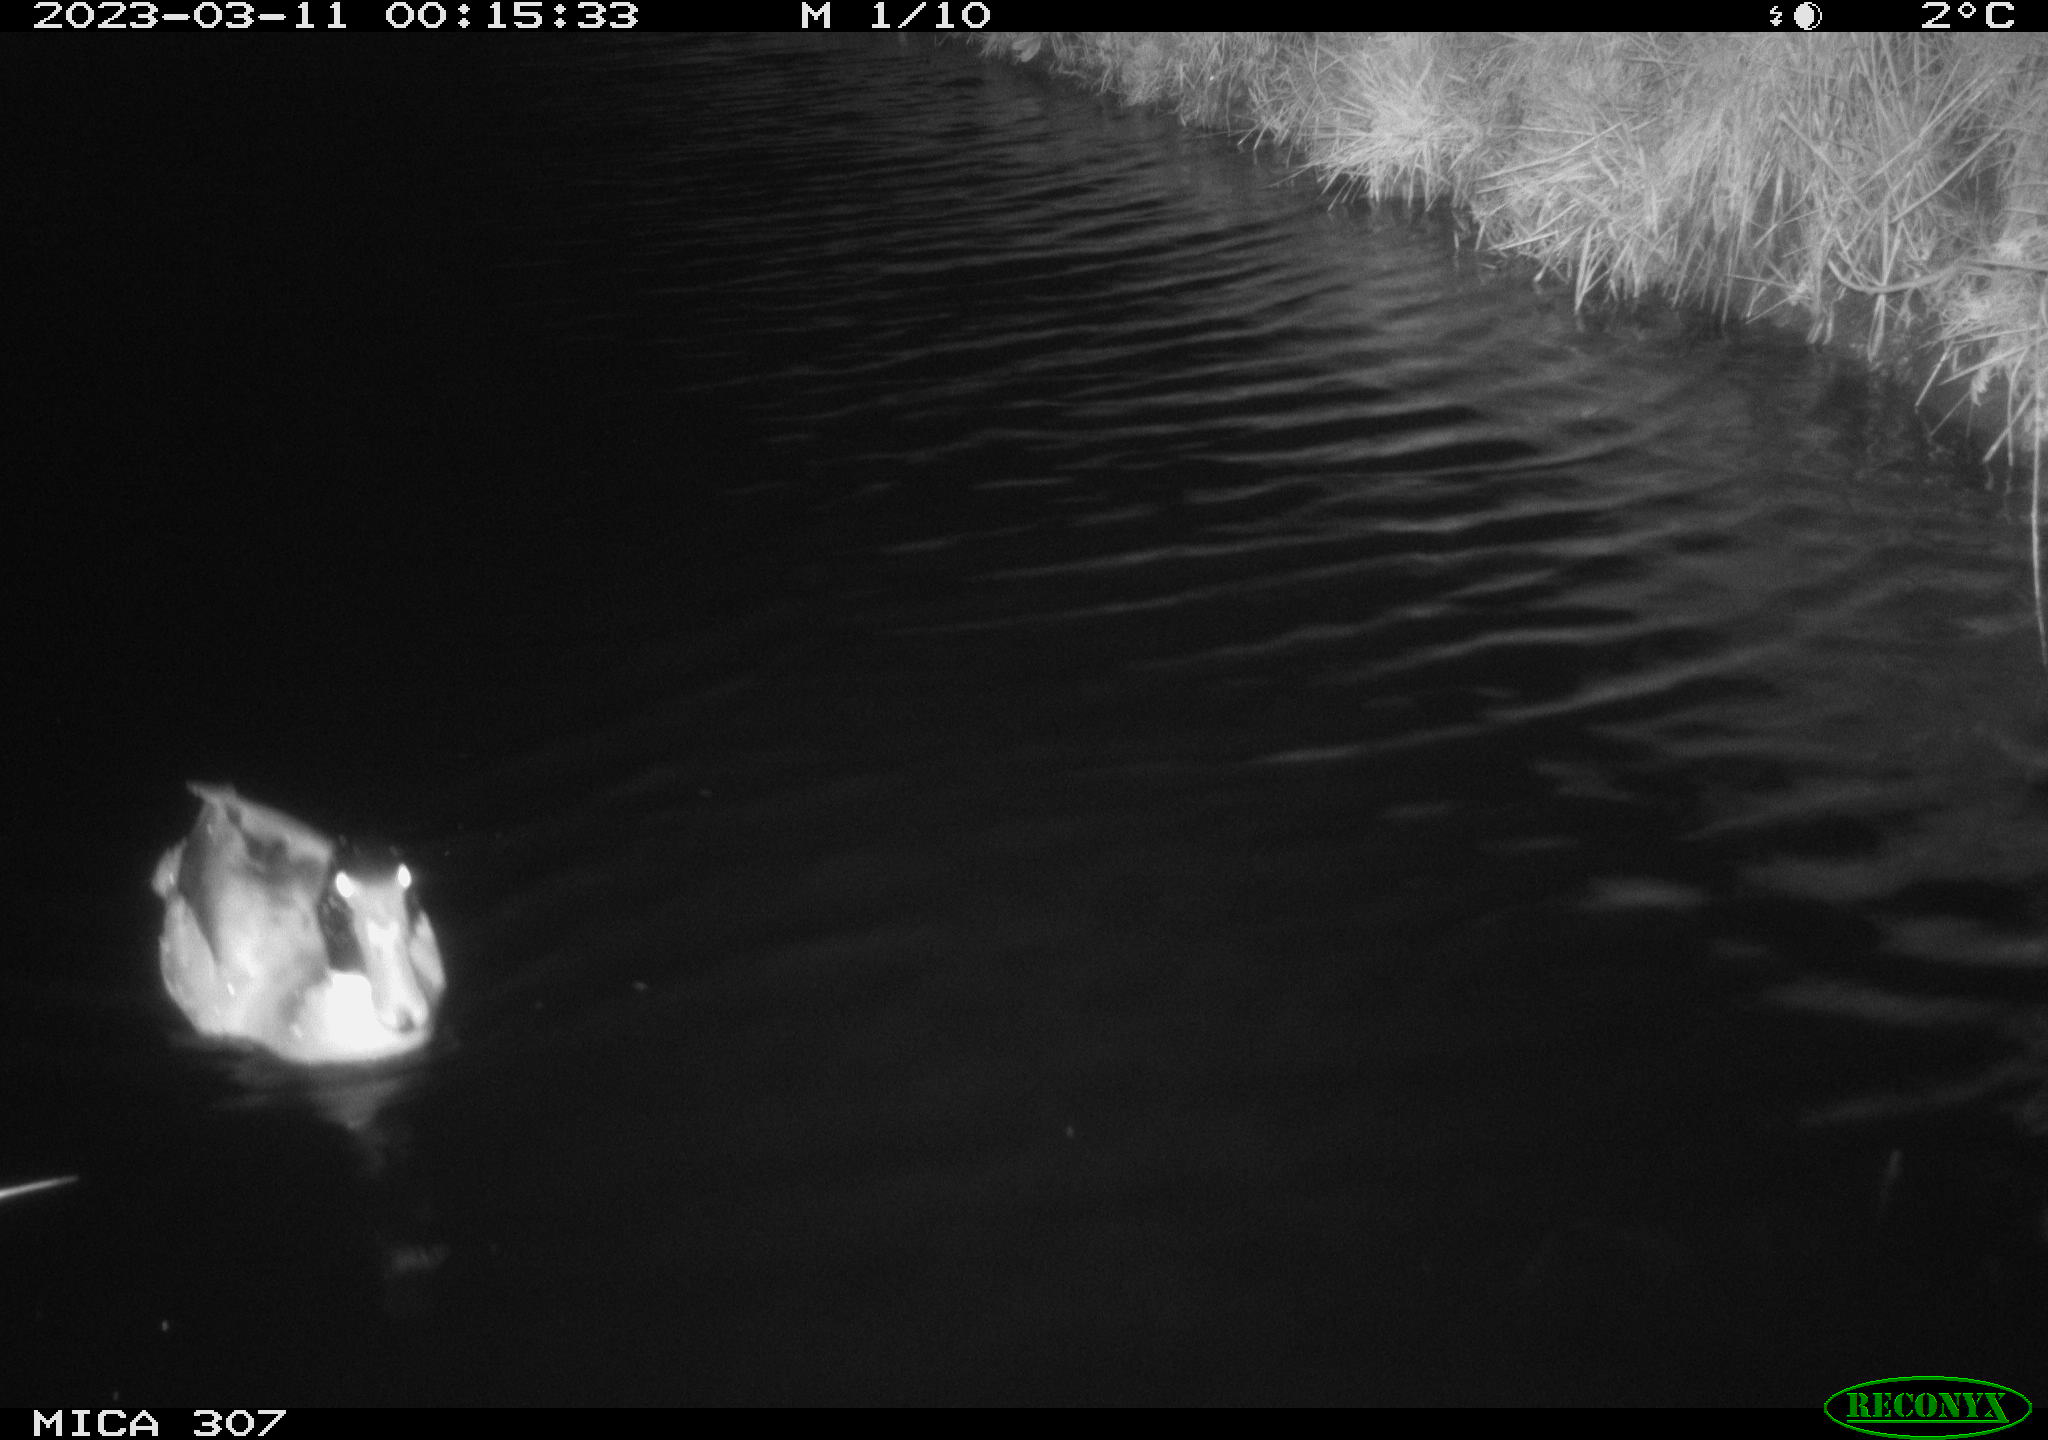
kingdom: Animalia
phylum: Chordata
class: Aves
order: Anseriformes
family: Anatidae
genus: Anas
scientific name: Anas
